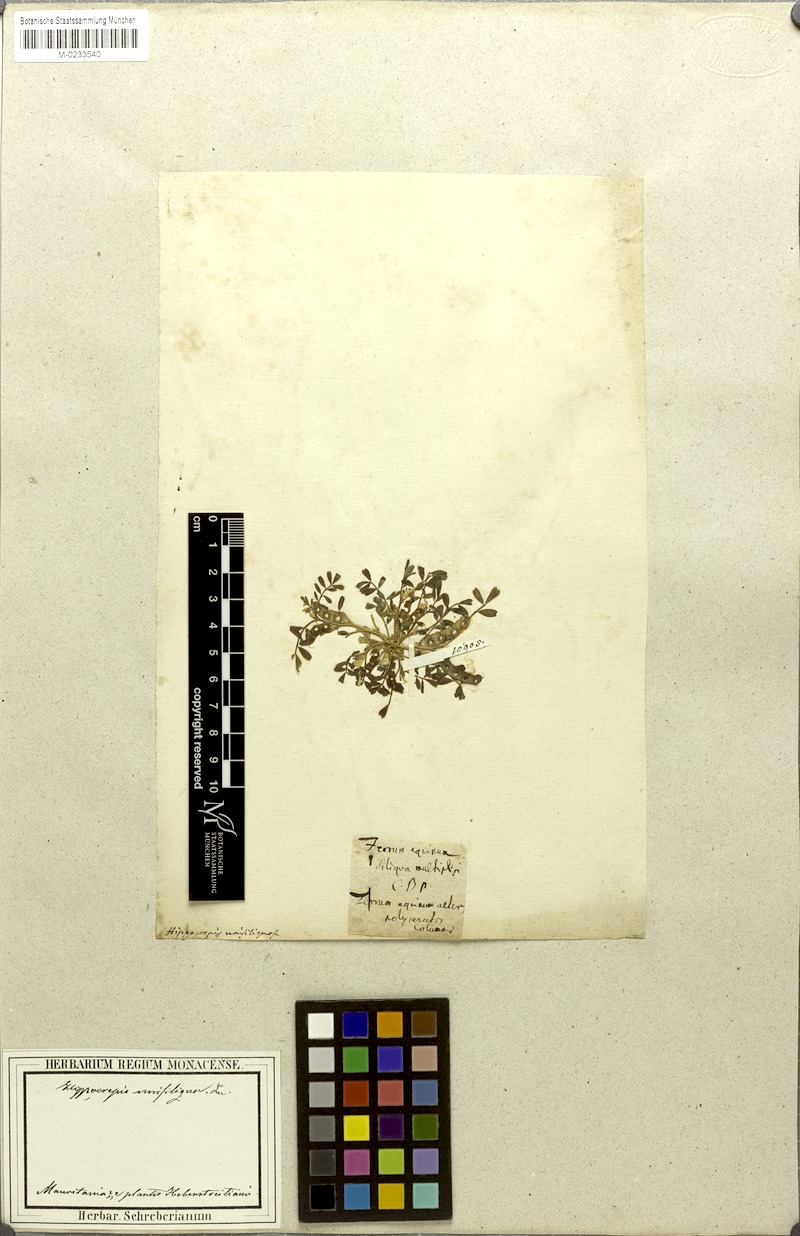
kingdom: Plantae
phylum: Tracheophyta
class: Magnoliopsida
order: Fabales
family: Fabaceae
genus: Hippocrepis
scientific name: Hippocrepis unisiliquosa
